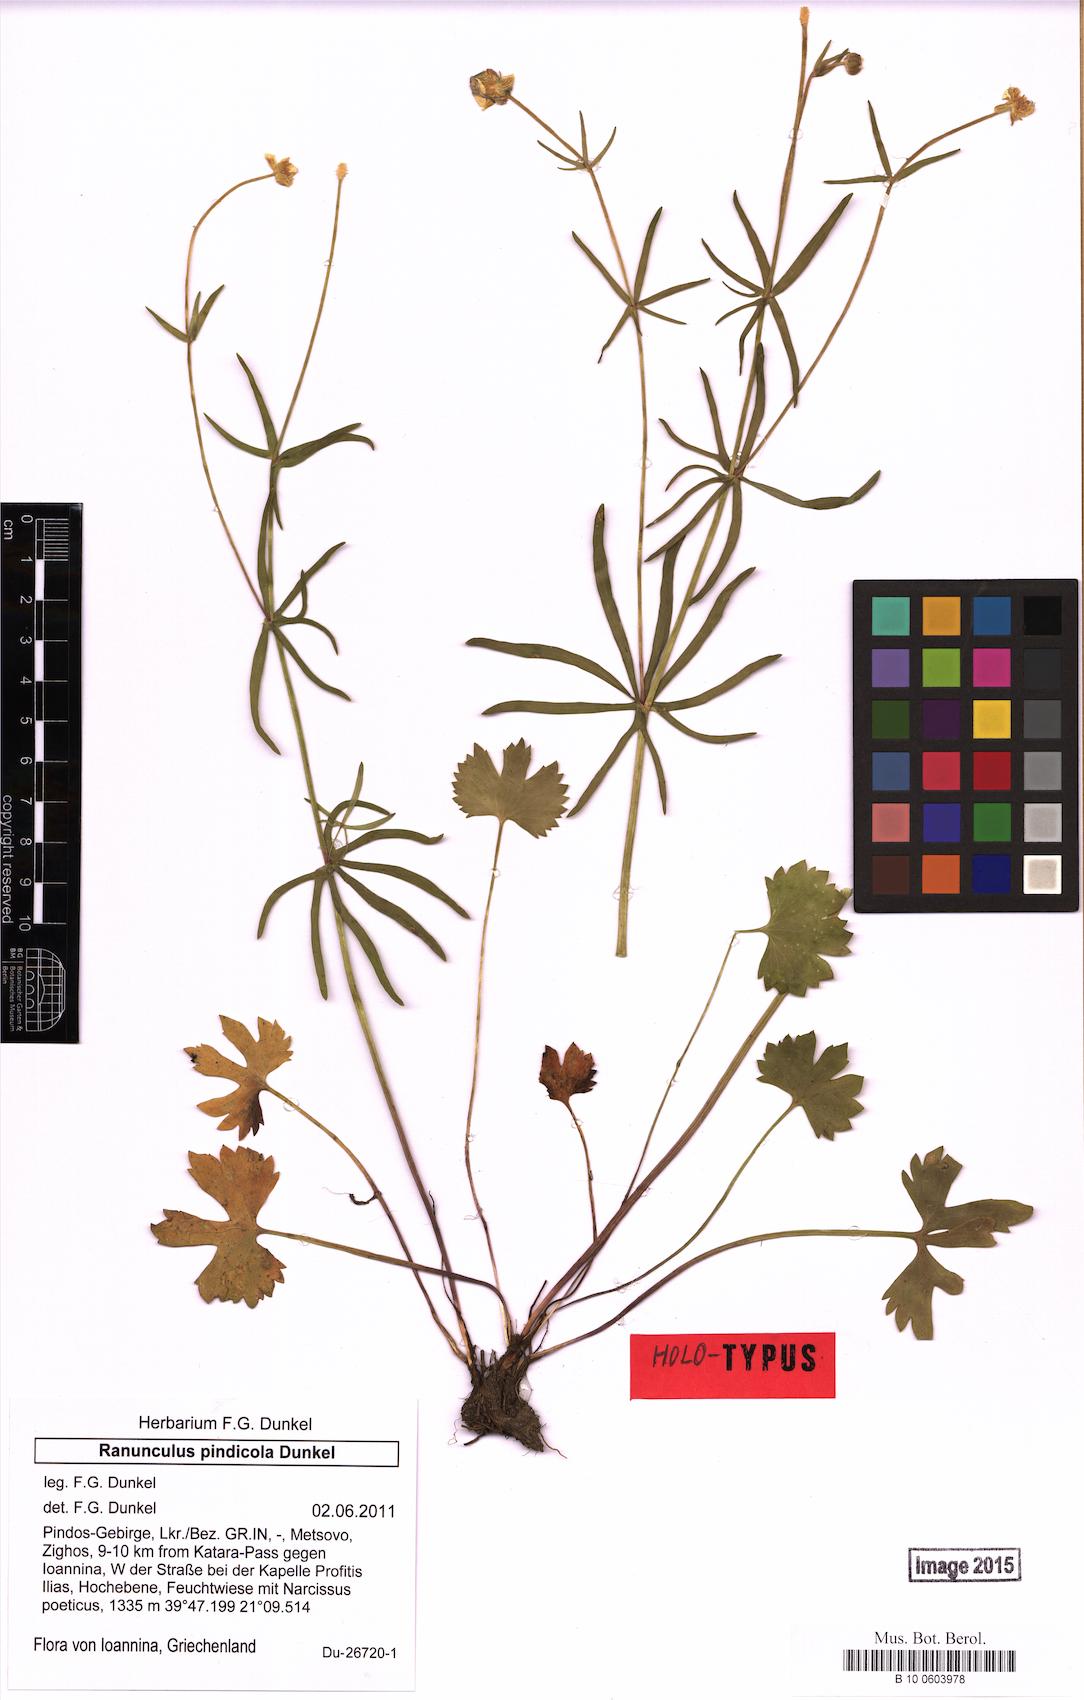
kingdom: Plantae
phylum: Tracheophyta
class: Magnoliopsida
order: Ranunculales
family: Ranunculaceae
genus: Ranunculus
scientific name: Ranunculus pindicola
